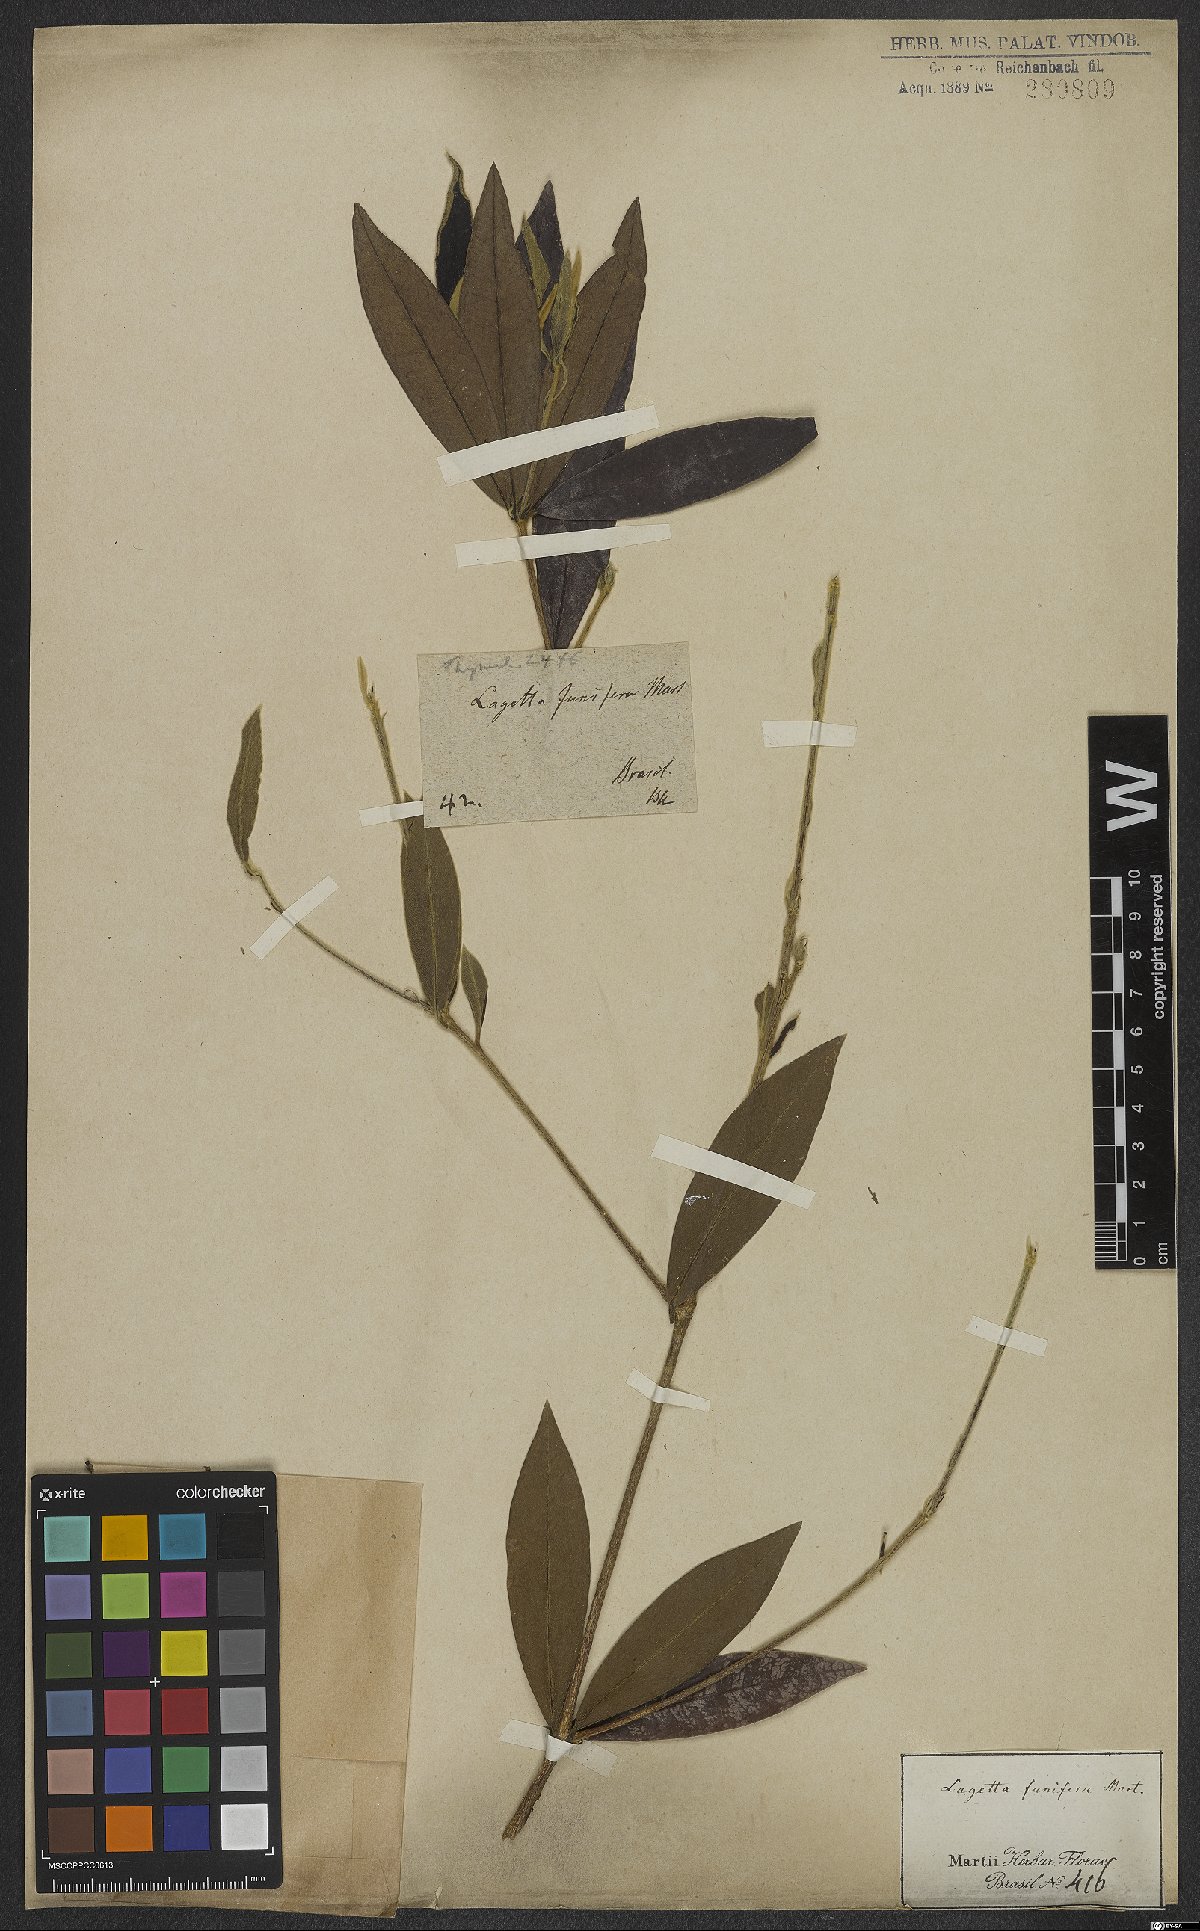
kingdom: Plantae
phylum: Tracheophyta
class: Magnoliopsida
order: Malvales
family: Thymelaeaceae
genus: Funifera
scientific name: Funifera brasiliensis
